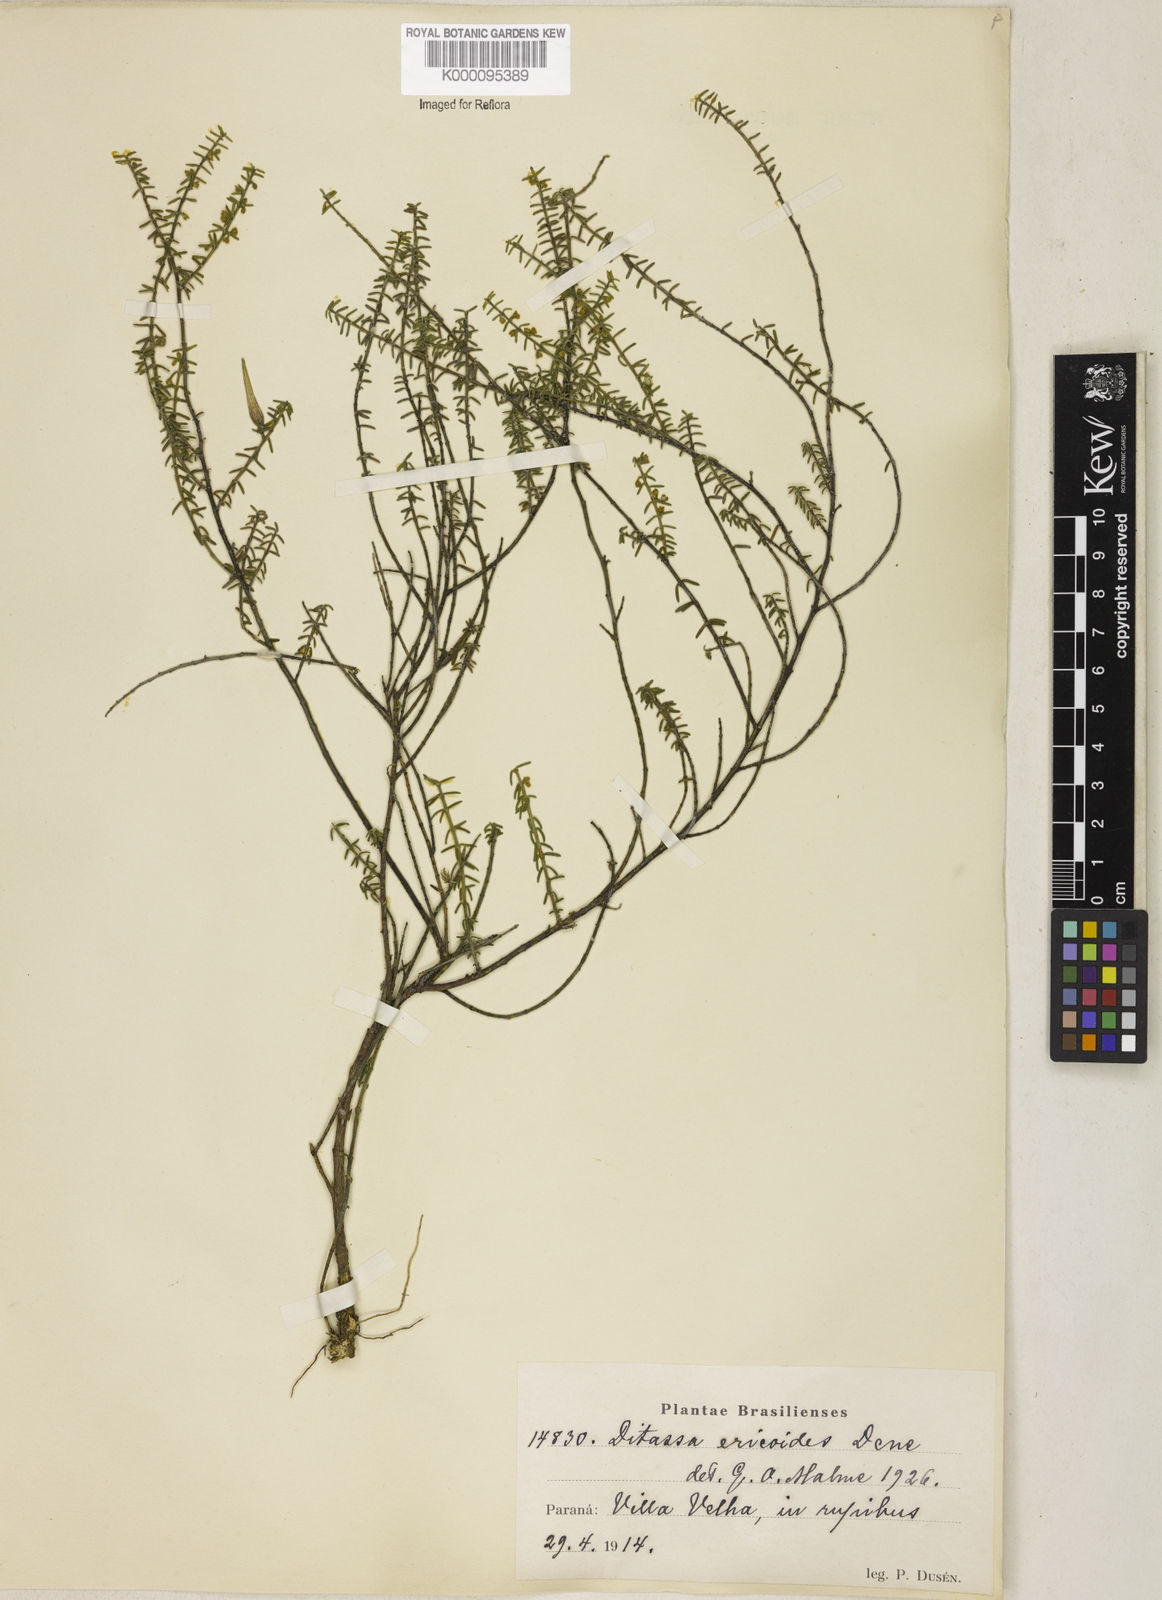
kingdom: Plantae
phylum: Tracheophyta
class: Magnoliopsida
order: Gentianales
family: Apocynaceae
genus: Minaria
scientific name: Minaria acerosa
